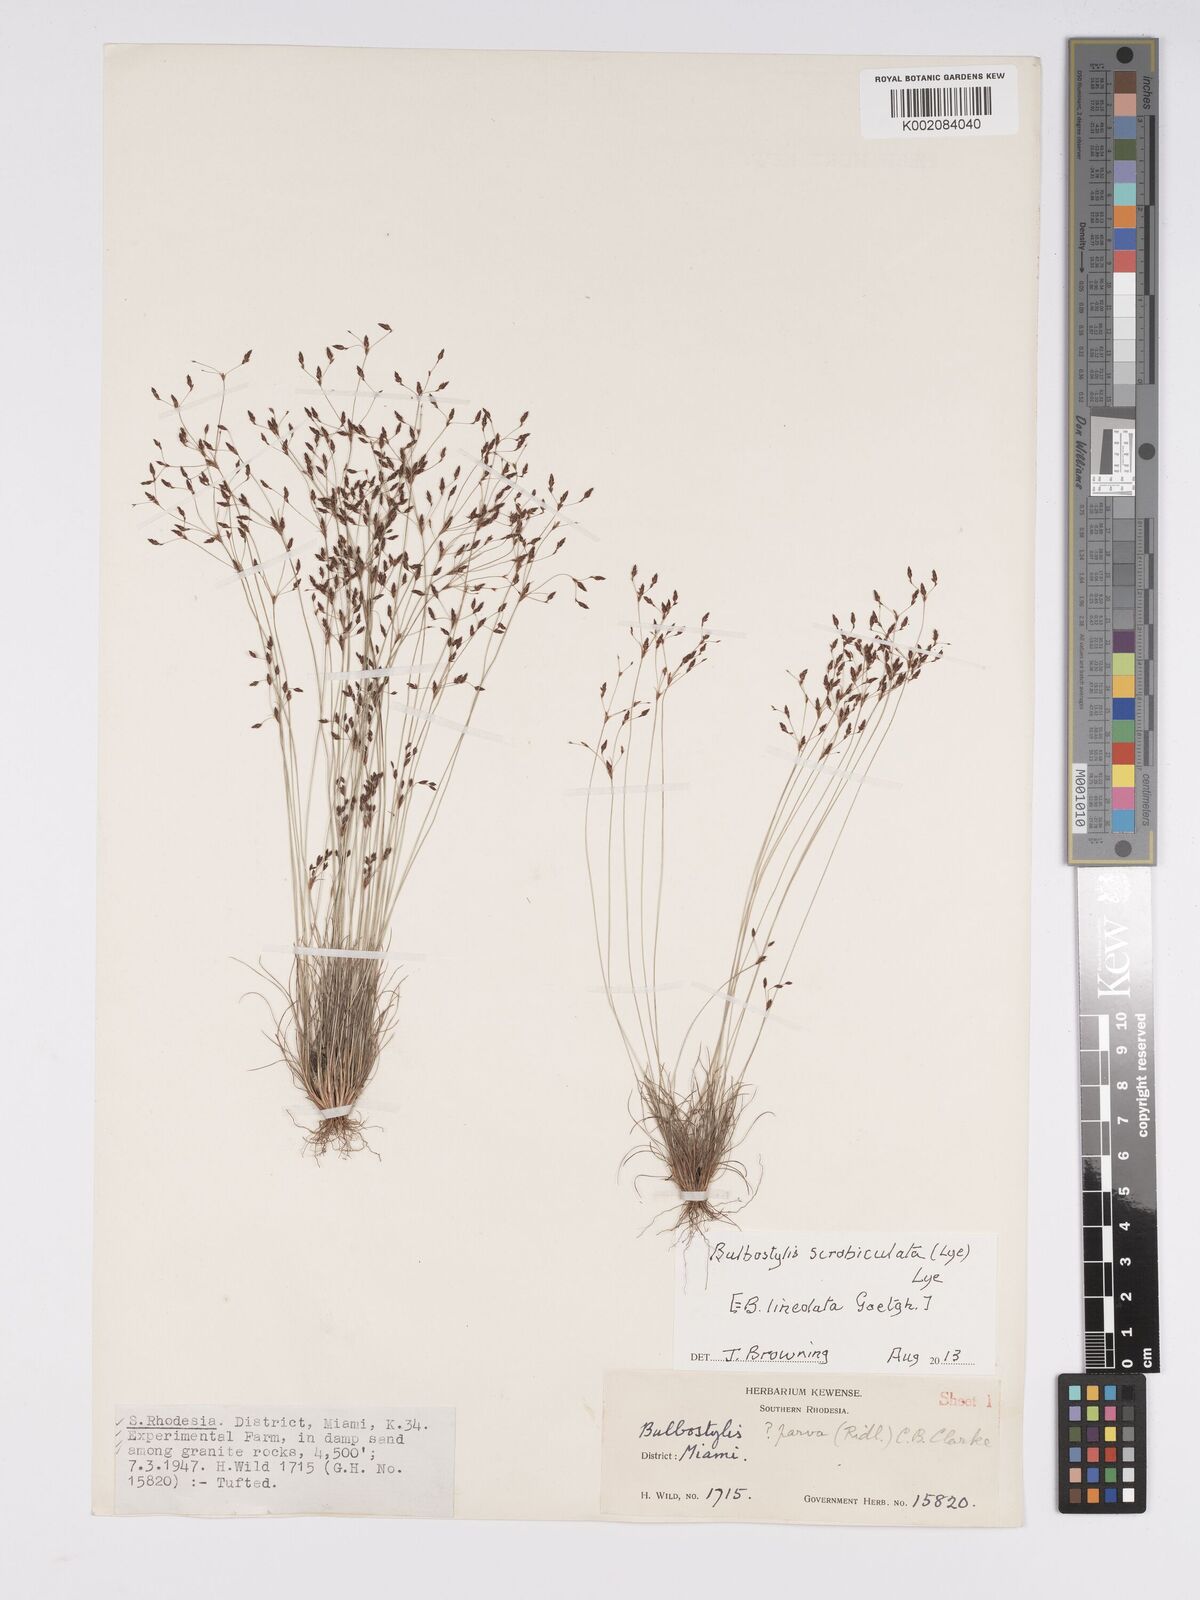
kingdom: Plantae
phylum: Tracheophyta
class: Liliopsida
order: Poales
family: Cyperaceae
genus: Bulbostylis
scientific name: Bulbostylis scrobiculata
